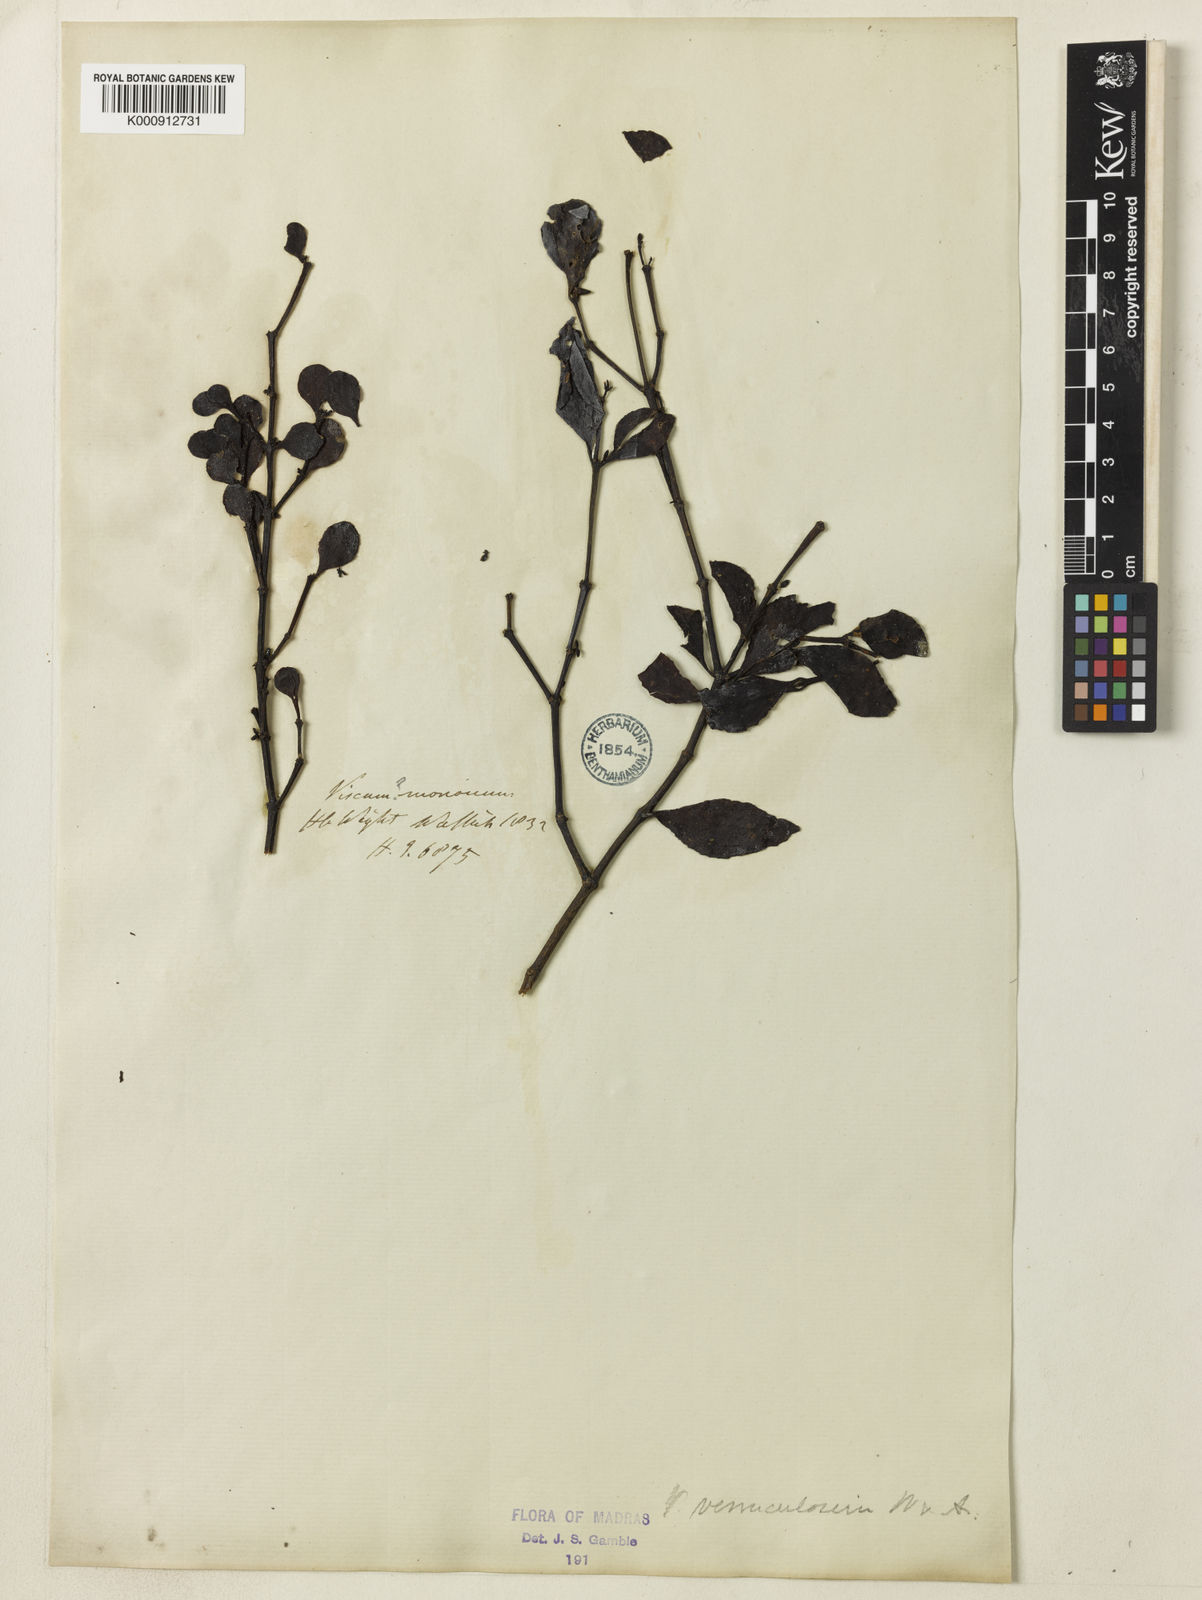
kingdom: Plantae
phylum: Tracheophyta
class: Magnoliopsida
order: Santalales
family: Viscaceae
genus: Viscum
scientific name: Viscum heyneanum
